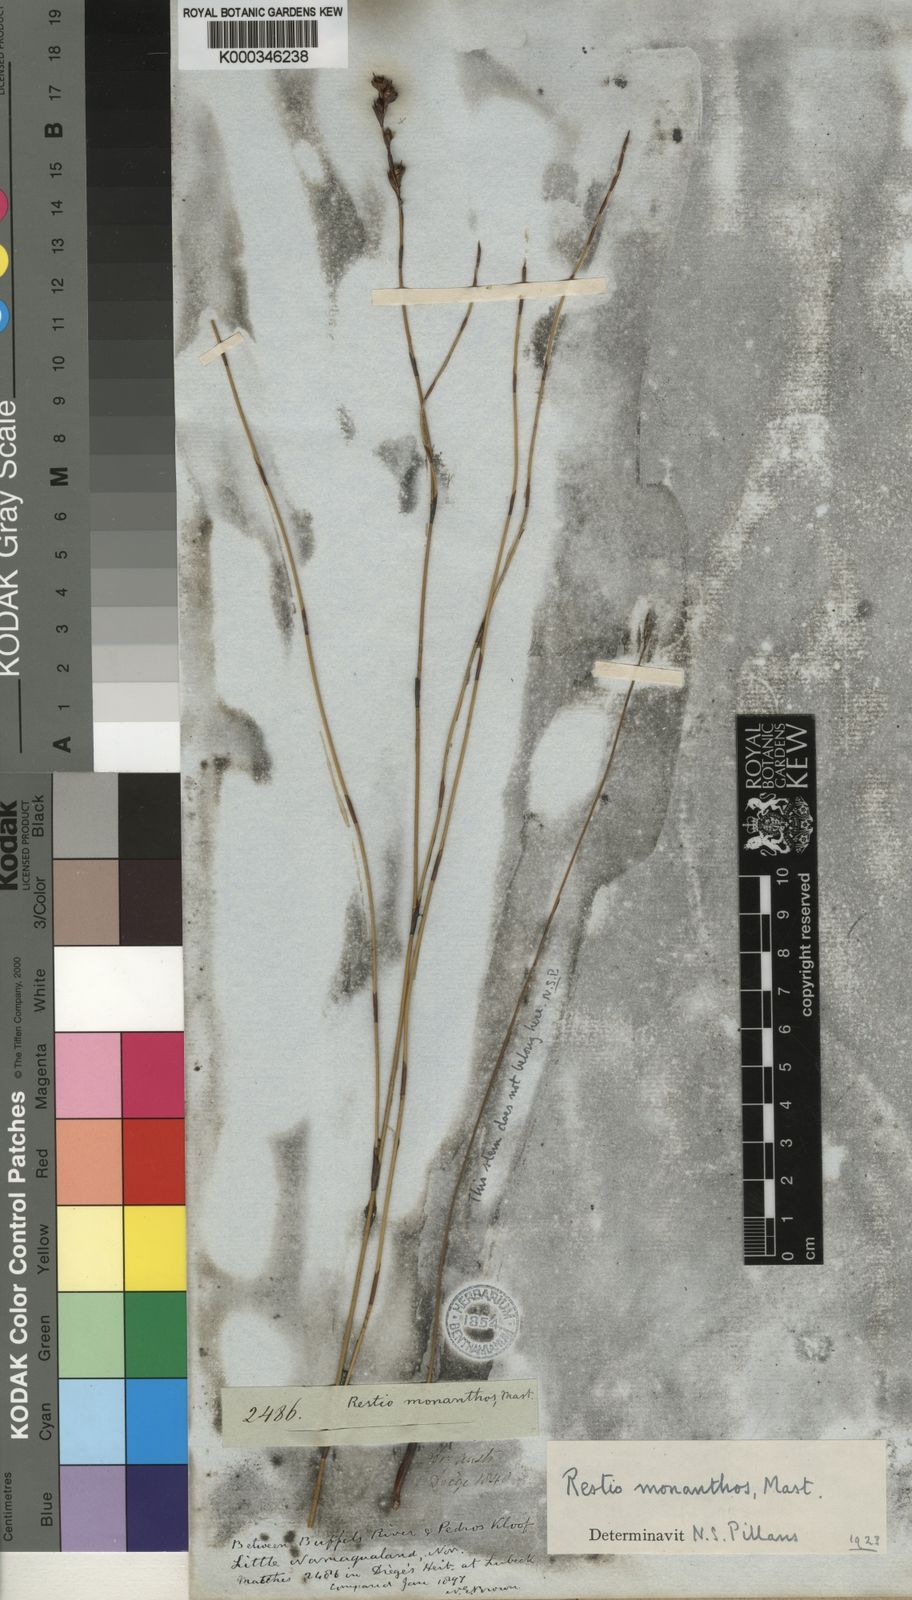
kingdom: Plantae
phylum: Tracheophyta
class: Liliopsida
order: Poales
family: Restionaceae
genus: Restio
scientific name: Restio monanthos
